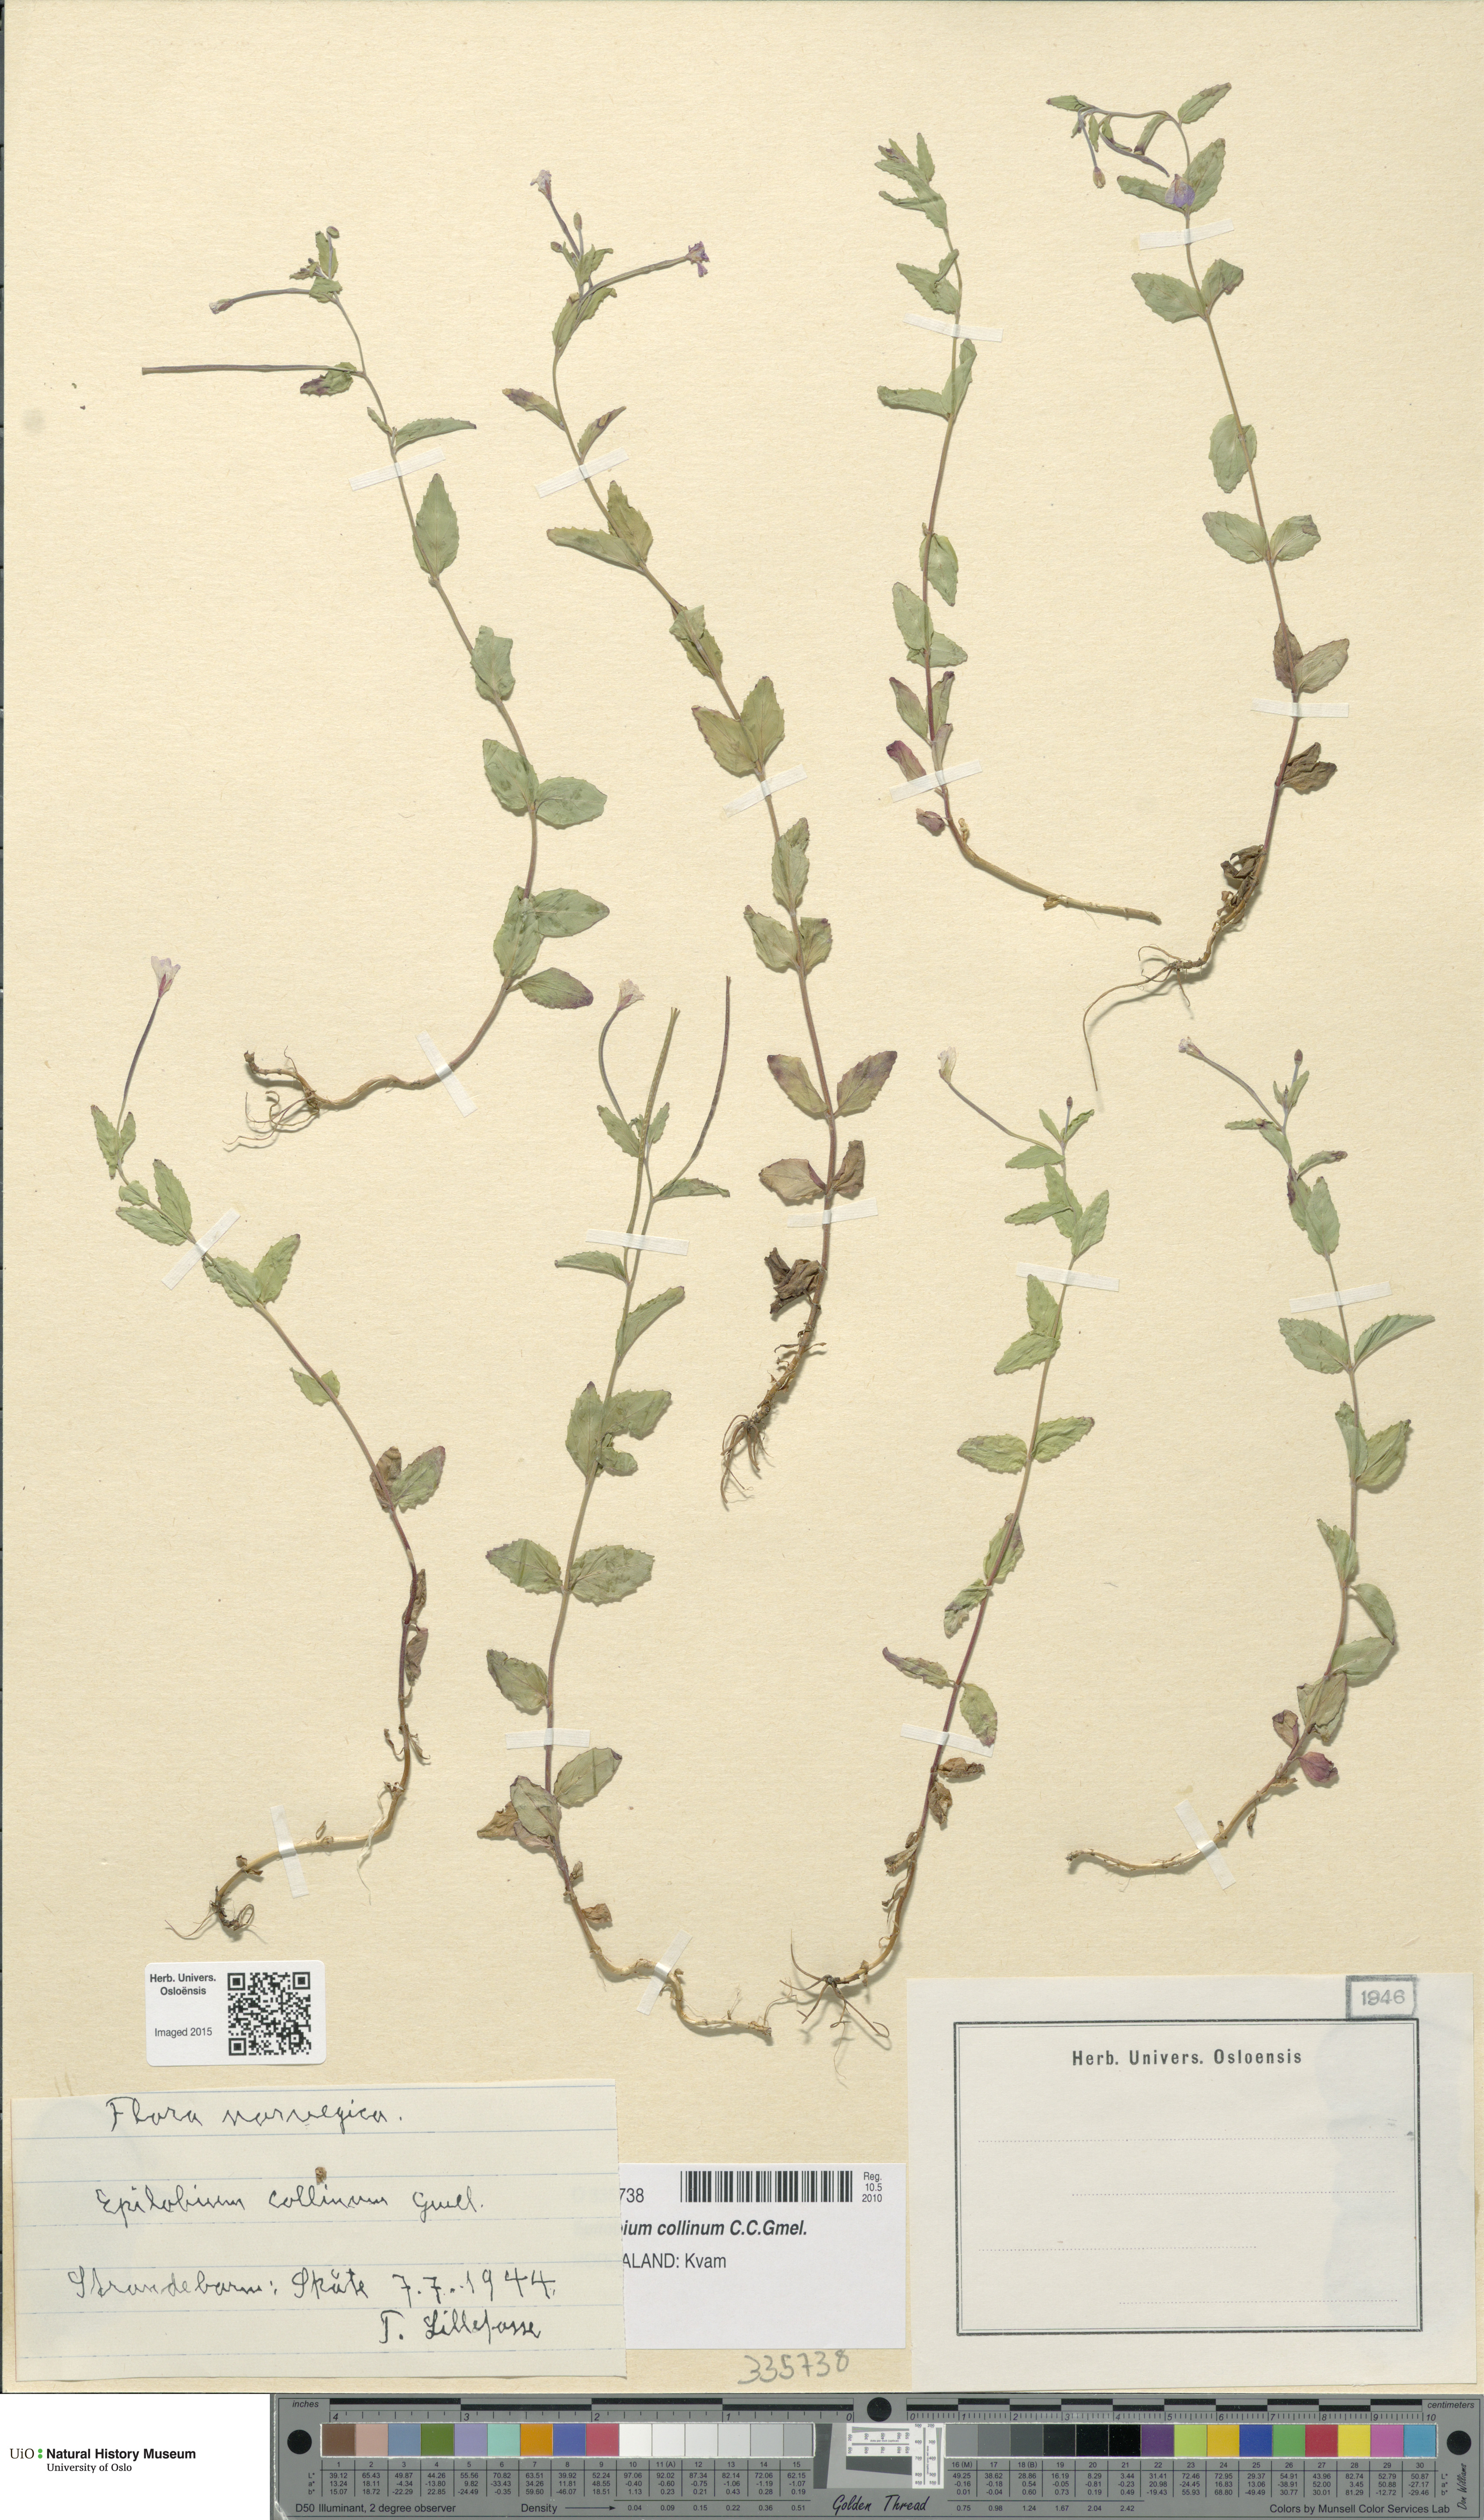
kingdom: Plantae
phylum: Tracheophyta
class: Magnoliopsida
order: Myrtales
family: Onagraceae
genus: Epilobium
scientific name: Epilobium collinum
